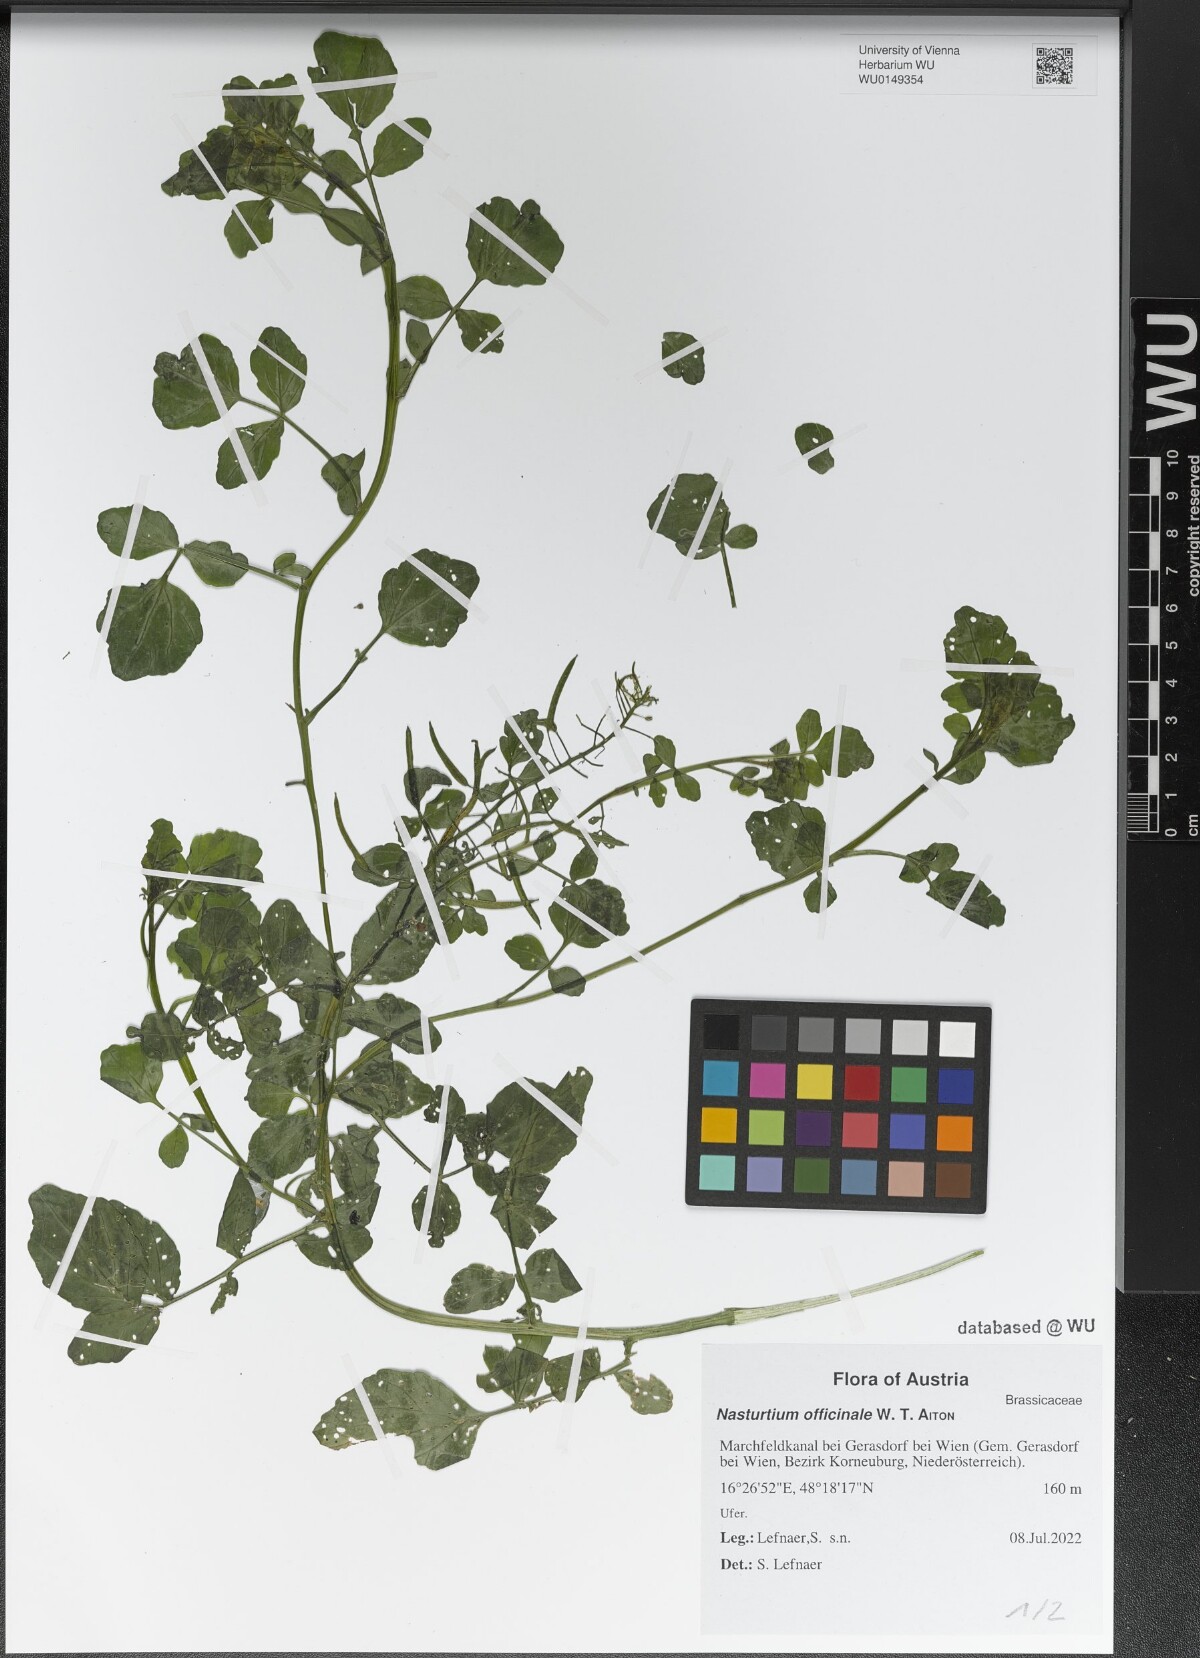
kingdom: Plantae
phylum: Tracheophyta
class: Magnoliopsida
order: Brassicales
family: Brassicaceae
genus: Nasturtium
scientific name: Nasturtium officinale
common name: Watercress
